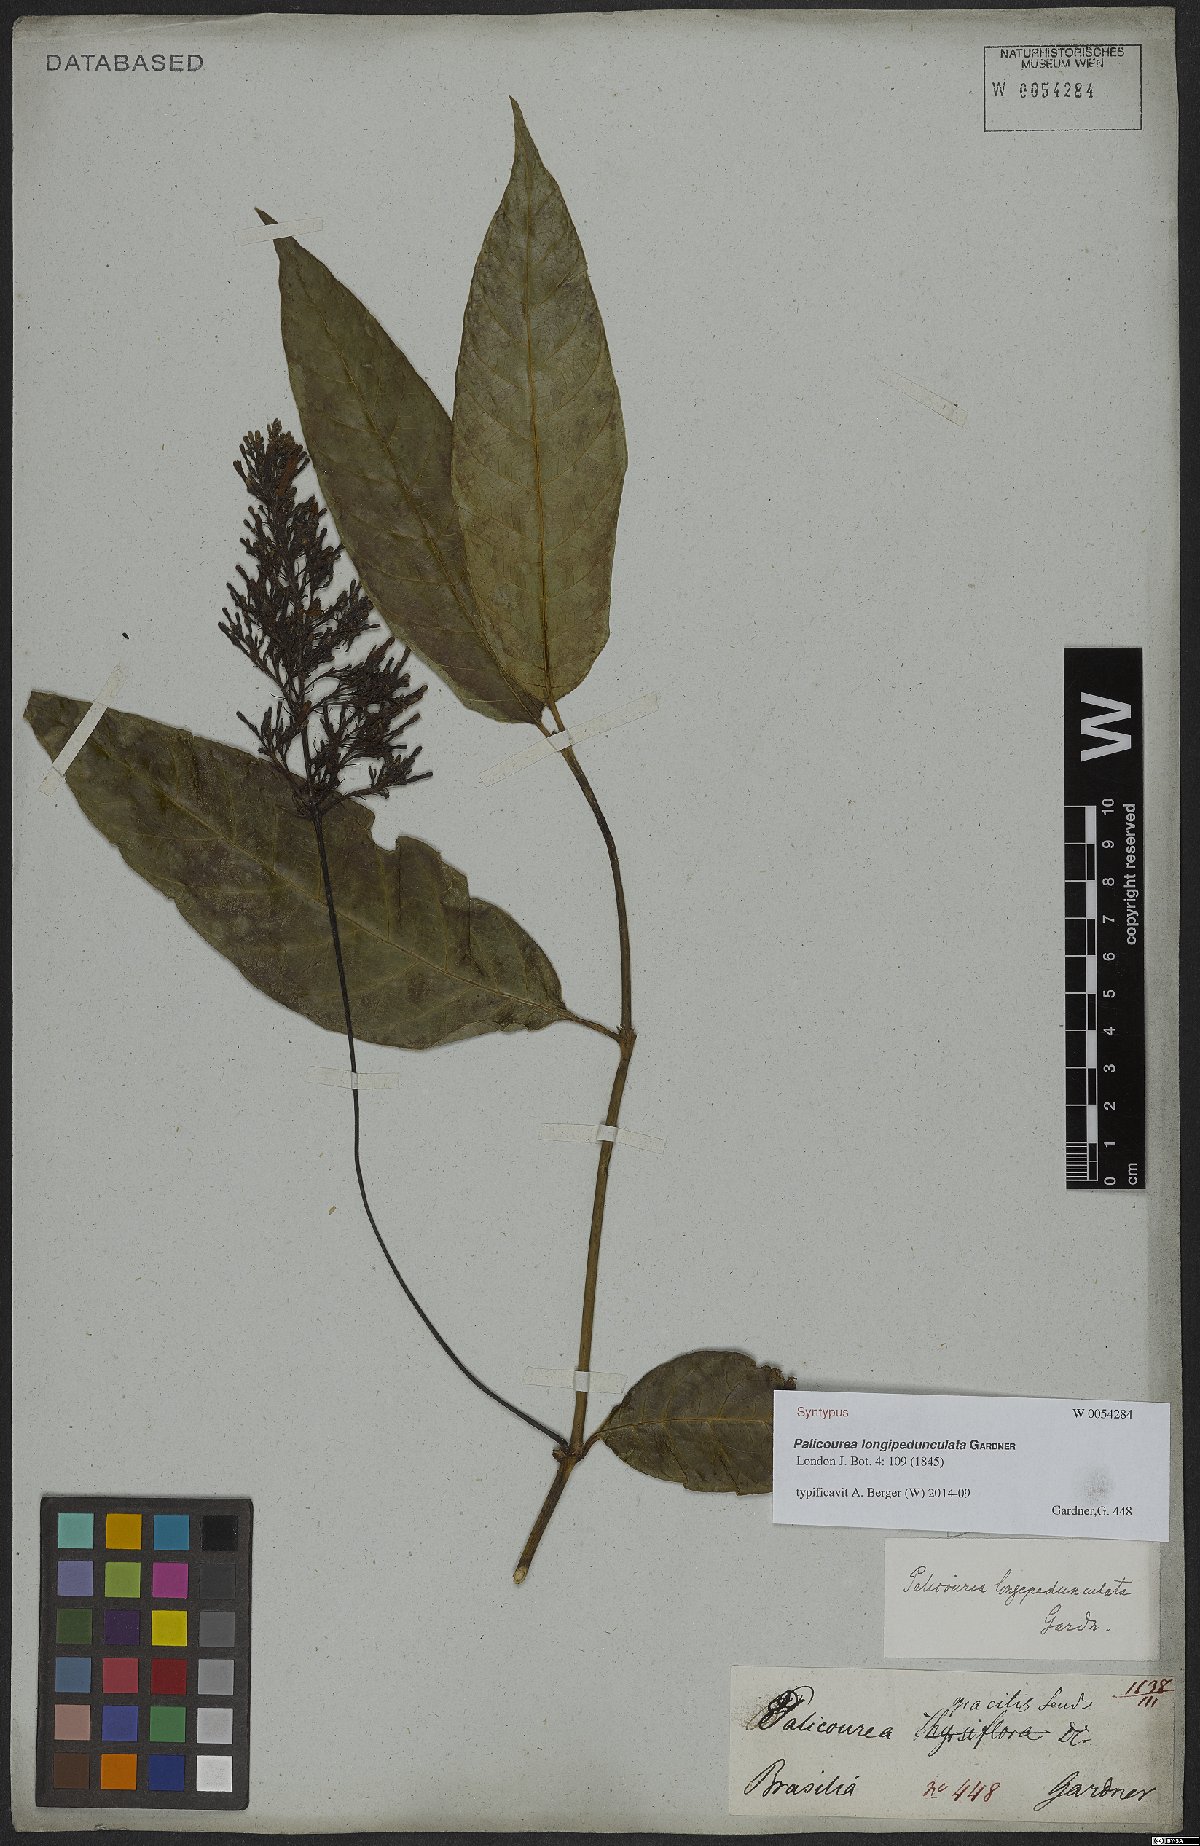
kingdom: Plantae
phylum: Tracheophyta
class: Magnoliopsida
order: Gentianales
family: Rubiaceae
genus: Palicourea
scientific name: Palicourea longipedunculata
